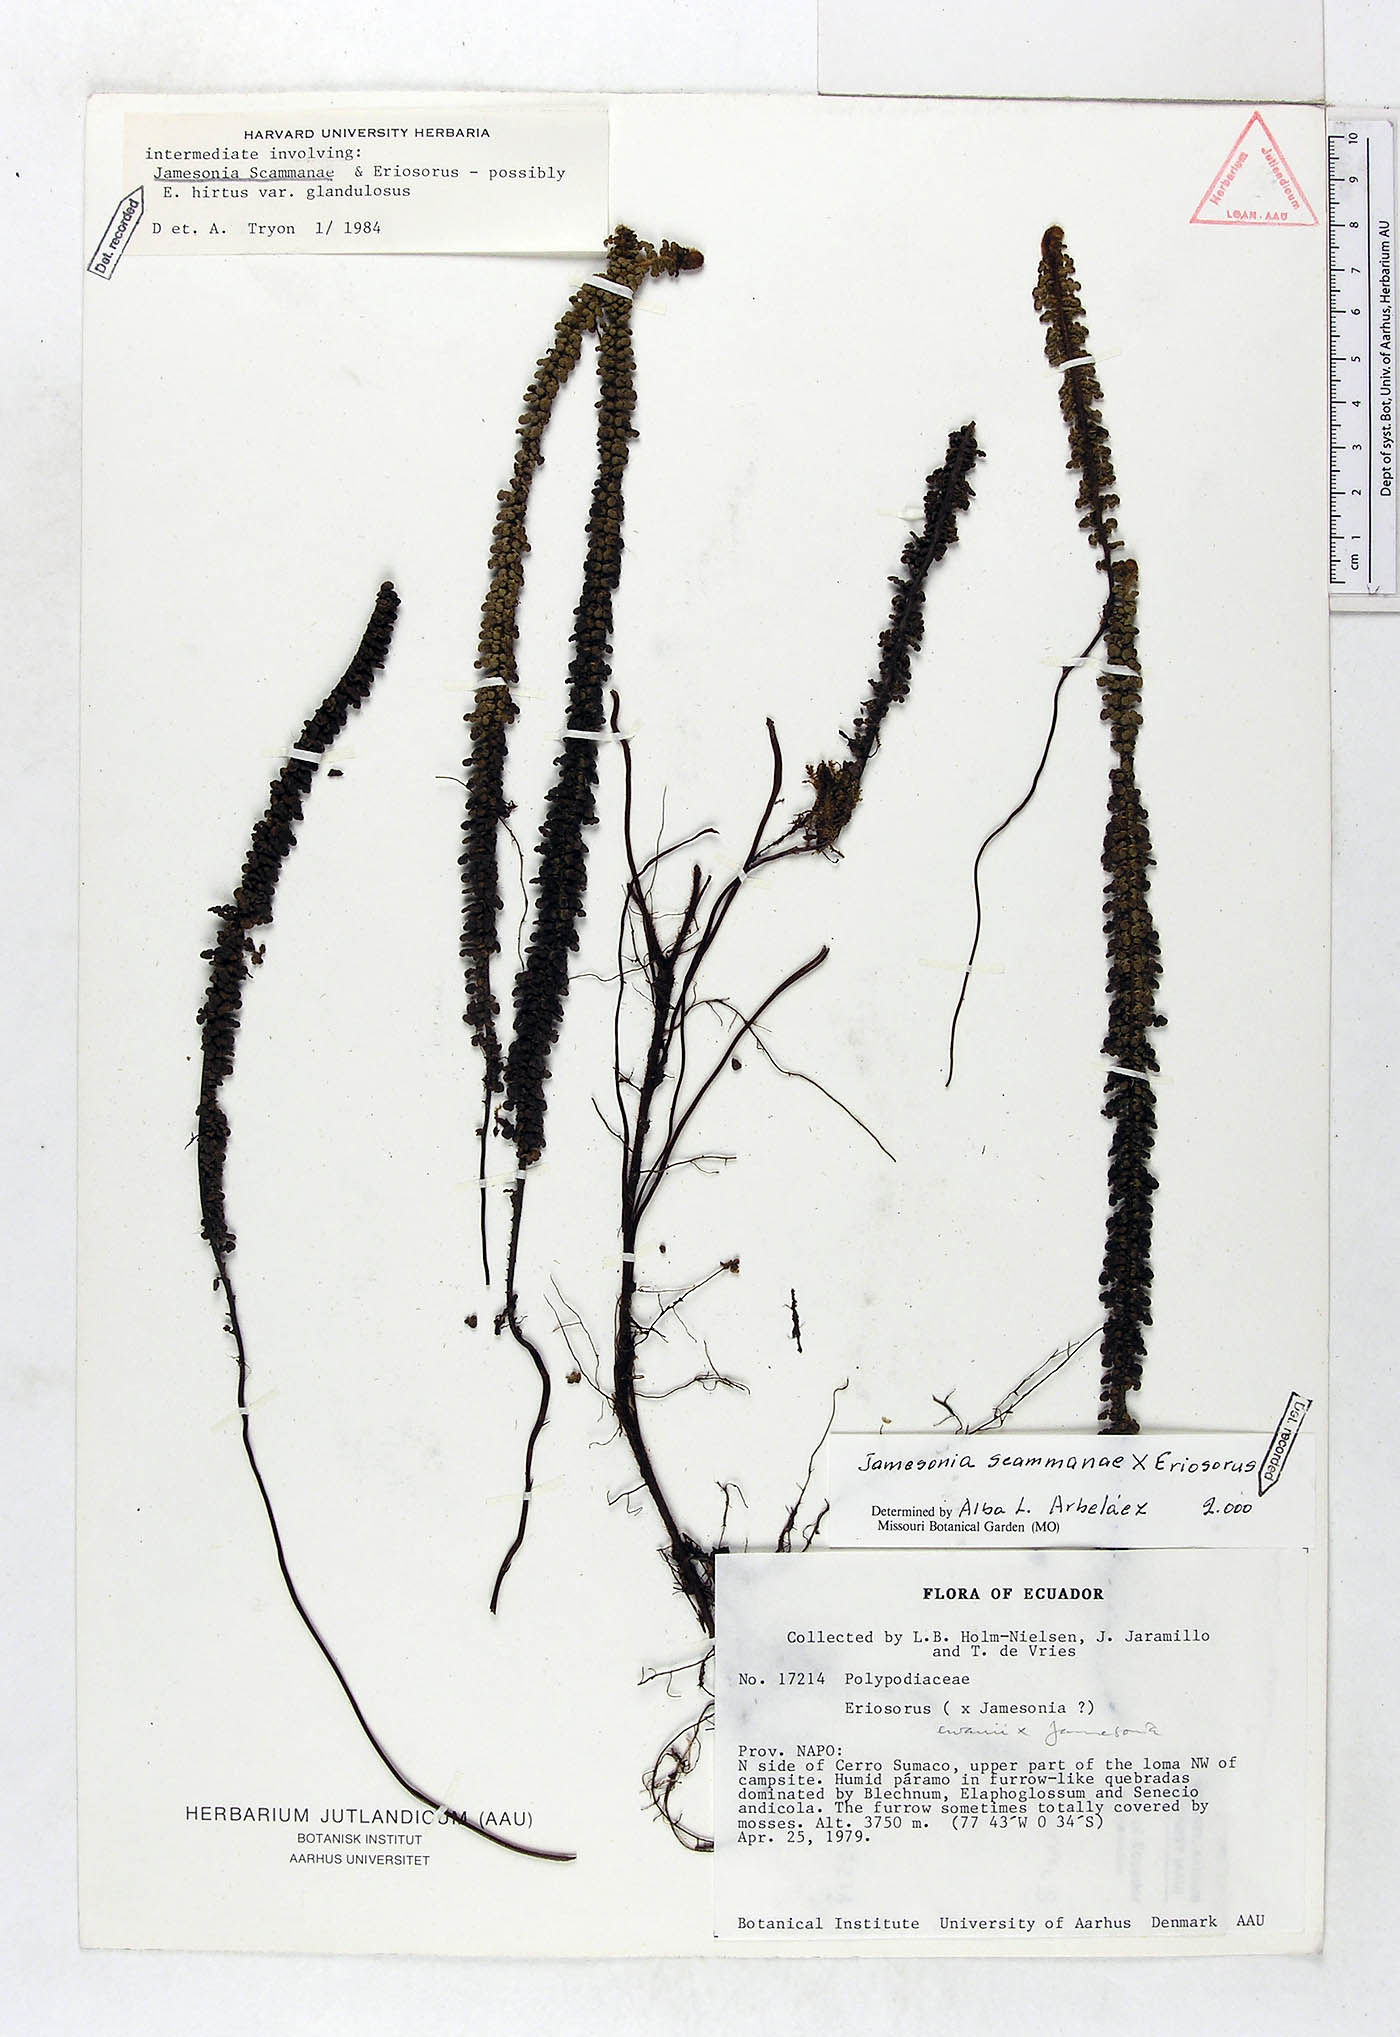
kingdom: Plantae
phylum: Tracheophyta
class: Polypodiopsida
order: Polypodiales
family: Pteridaceae
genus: Jamesonia
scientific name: Jamesonia scammanae
